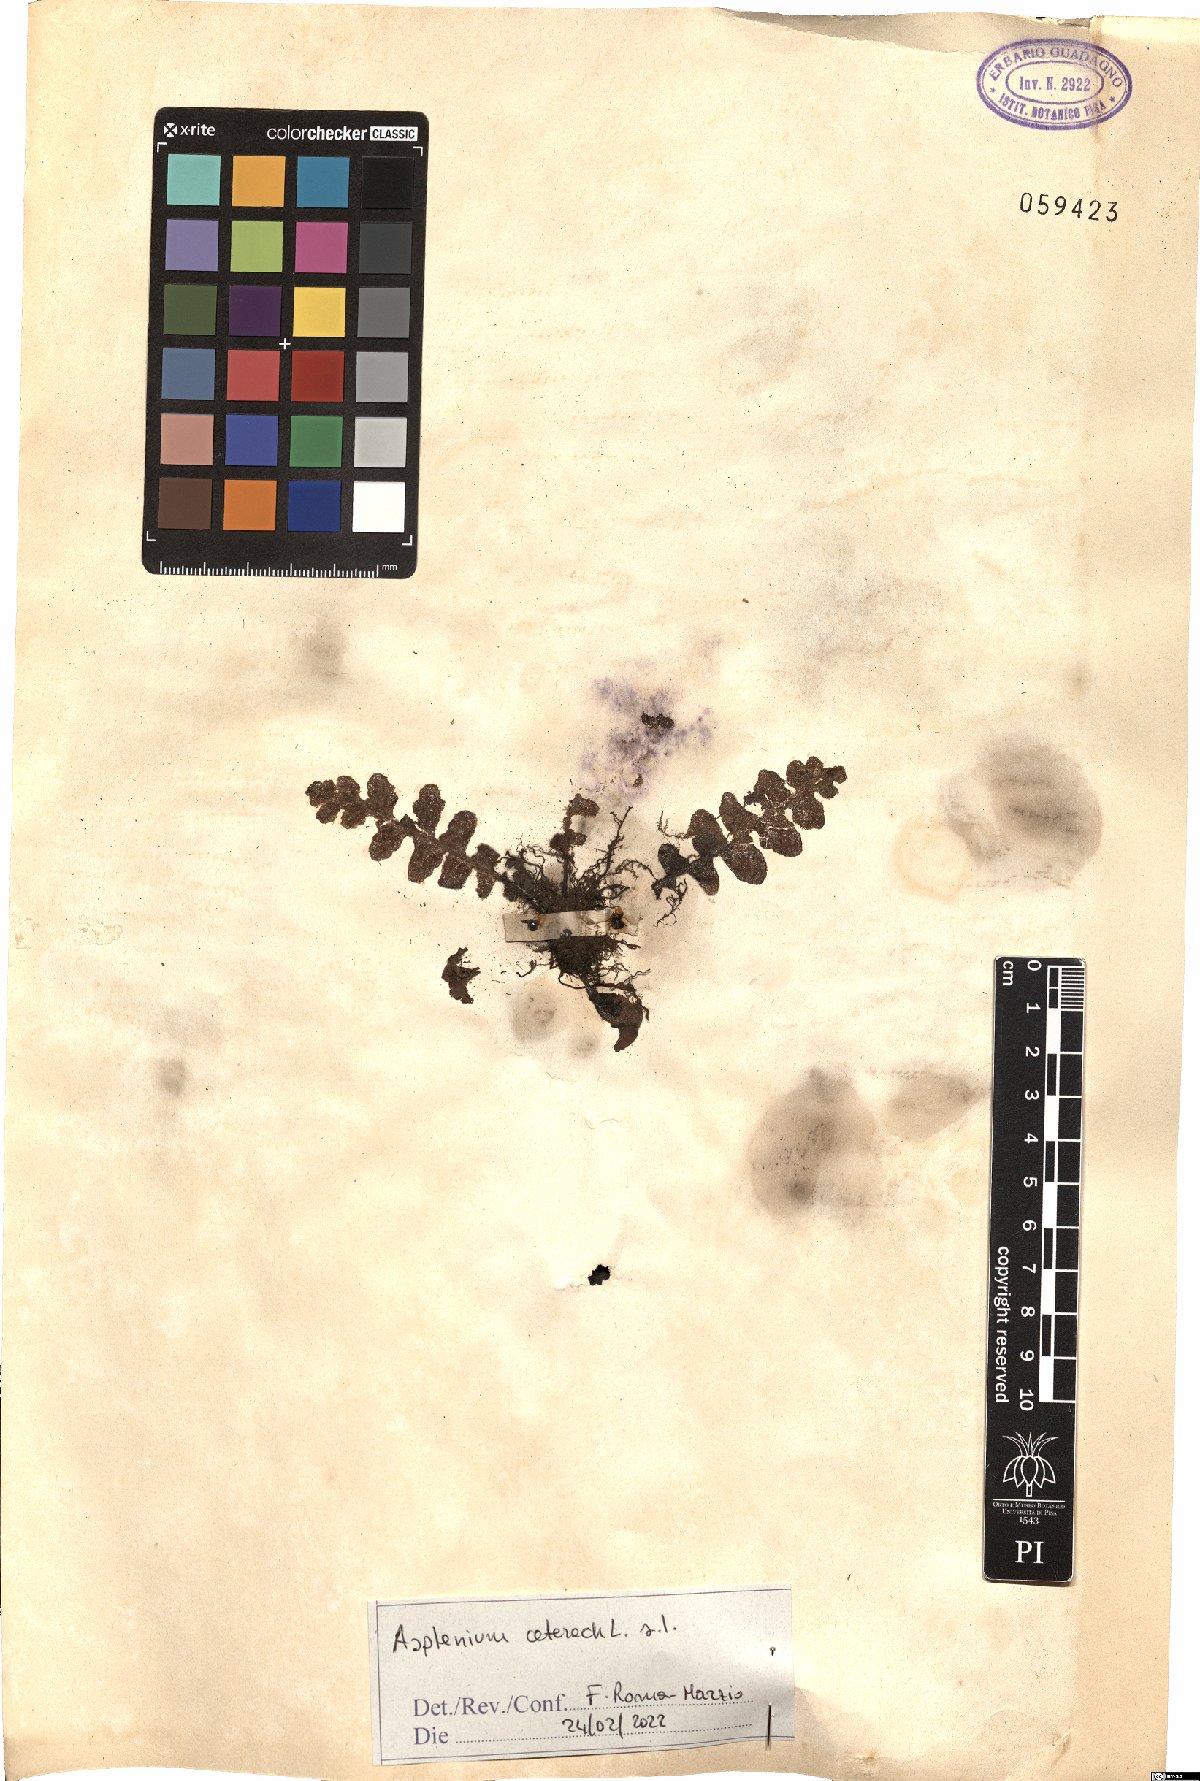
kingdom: Plantae
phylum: Tracheophyta
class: Polypodiopsida
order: Polypodiales
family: Aspleniaceae
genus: Asplenium
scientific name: Asplenium ceterach
